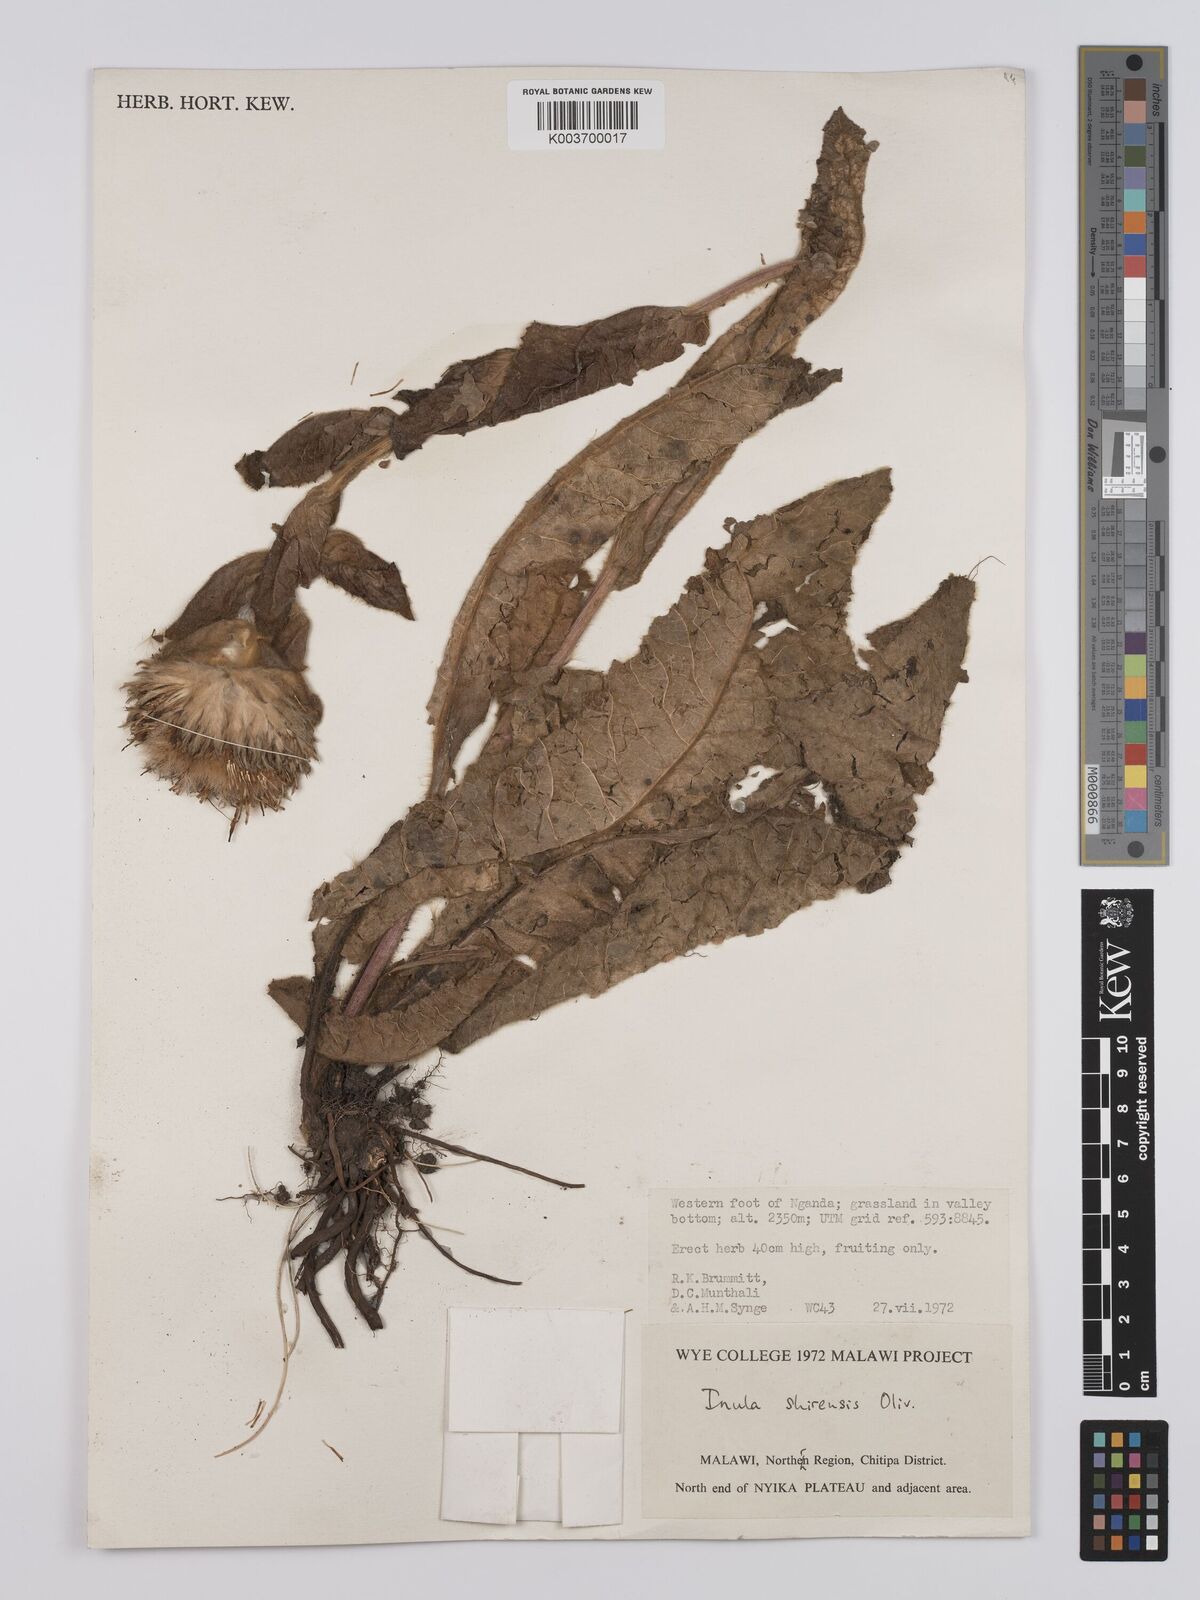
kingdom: Plantae
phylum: Tracheophyta
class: Magnoliopsida
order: Asterales
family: Asteraceae
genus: Monactinocephalus
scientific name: Monactinocephalus shirensis
